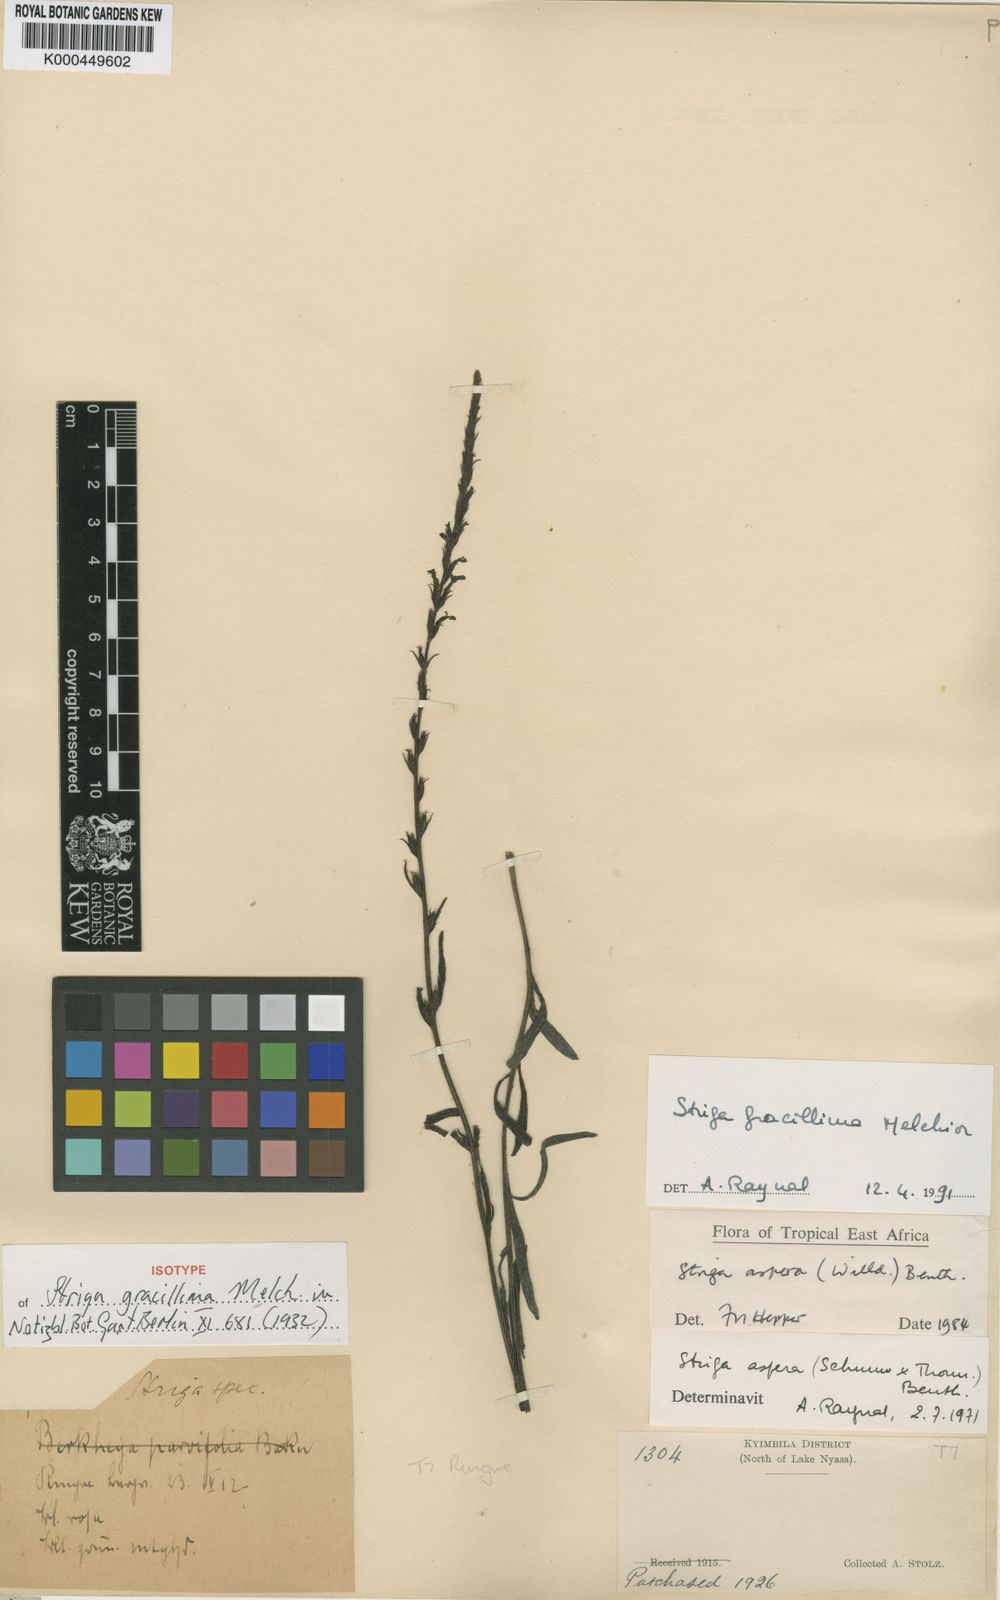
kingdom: Plantae
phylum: Tracheophyta
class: Magnoliopsida
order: Lamiales
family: Orobanchaceae
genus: Striga
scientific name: Striga gracillima
